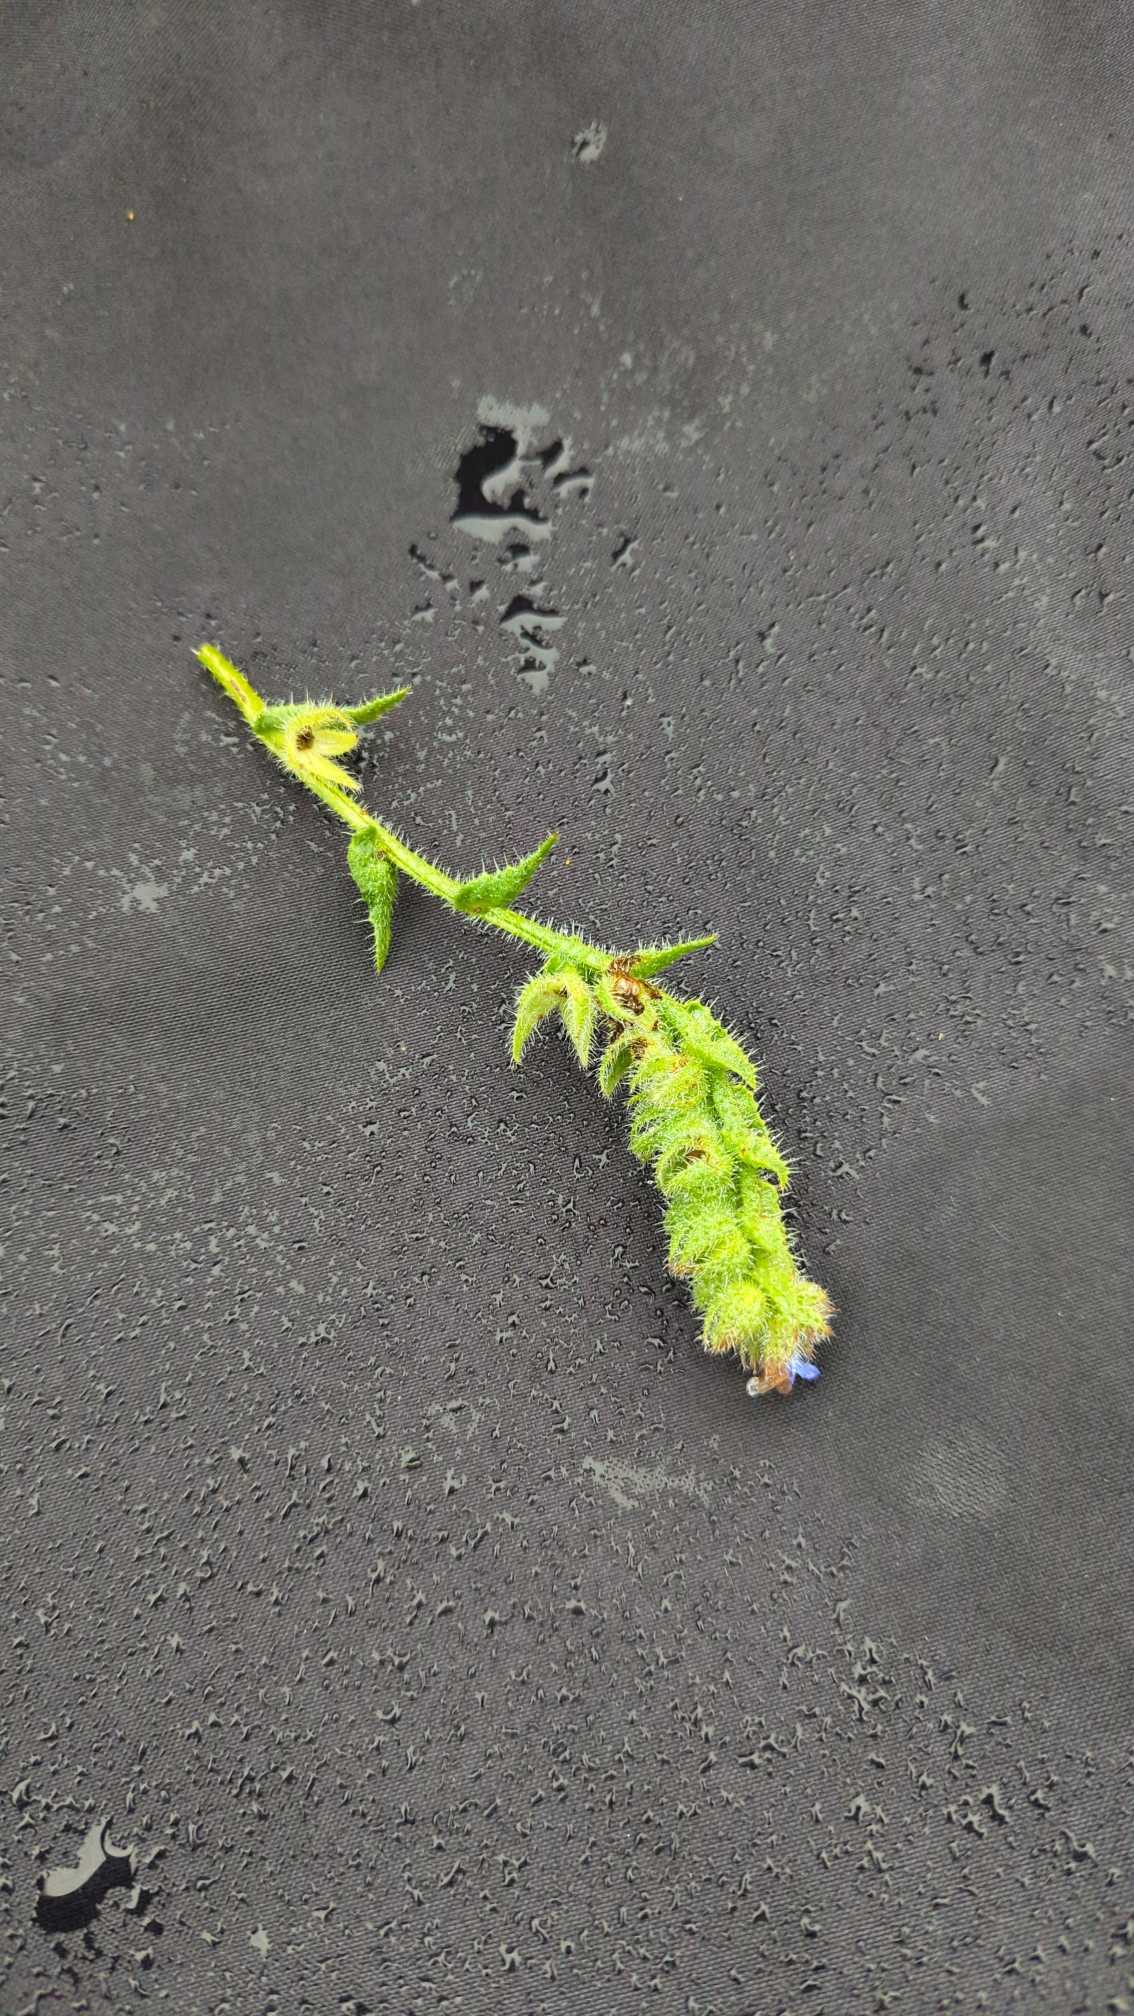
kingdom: Plantae
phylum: Tracheophyta
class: Magnoliopsida
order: Boraginales
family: Boraginaceae
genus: Lycopsis
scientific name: Lycopsis arvensis
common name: Krumhals
